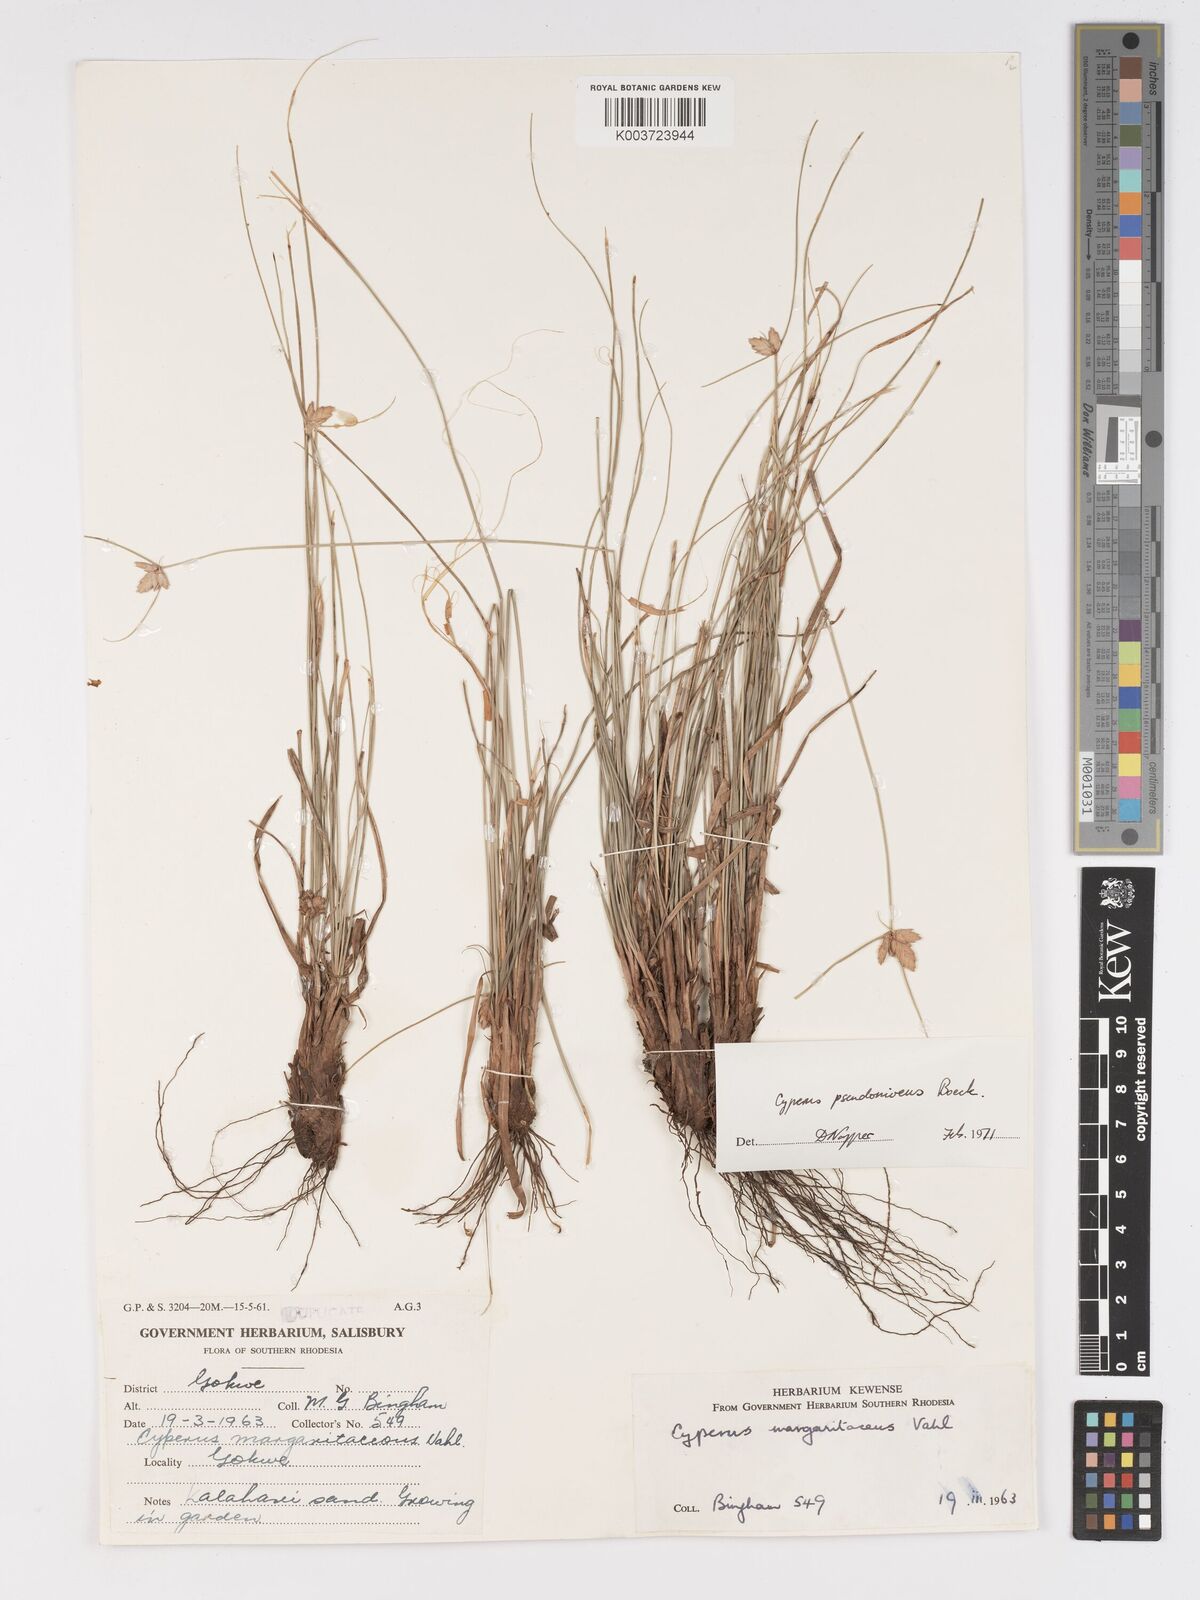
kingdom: Plantae
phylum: Tracheophyta
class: Liliopsida
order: Poales
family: Cyperaceae
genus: Cyperus
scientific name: Cyperus margaritaceus
